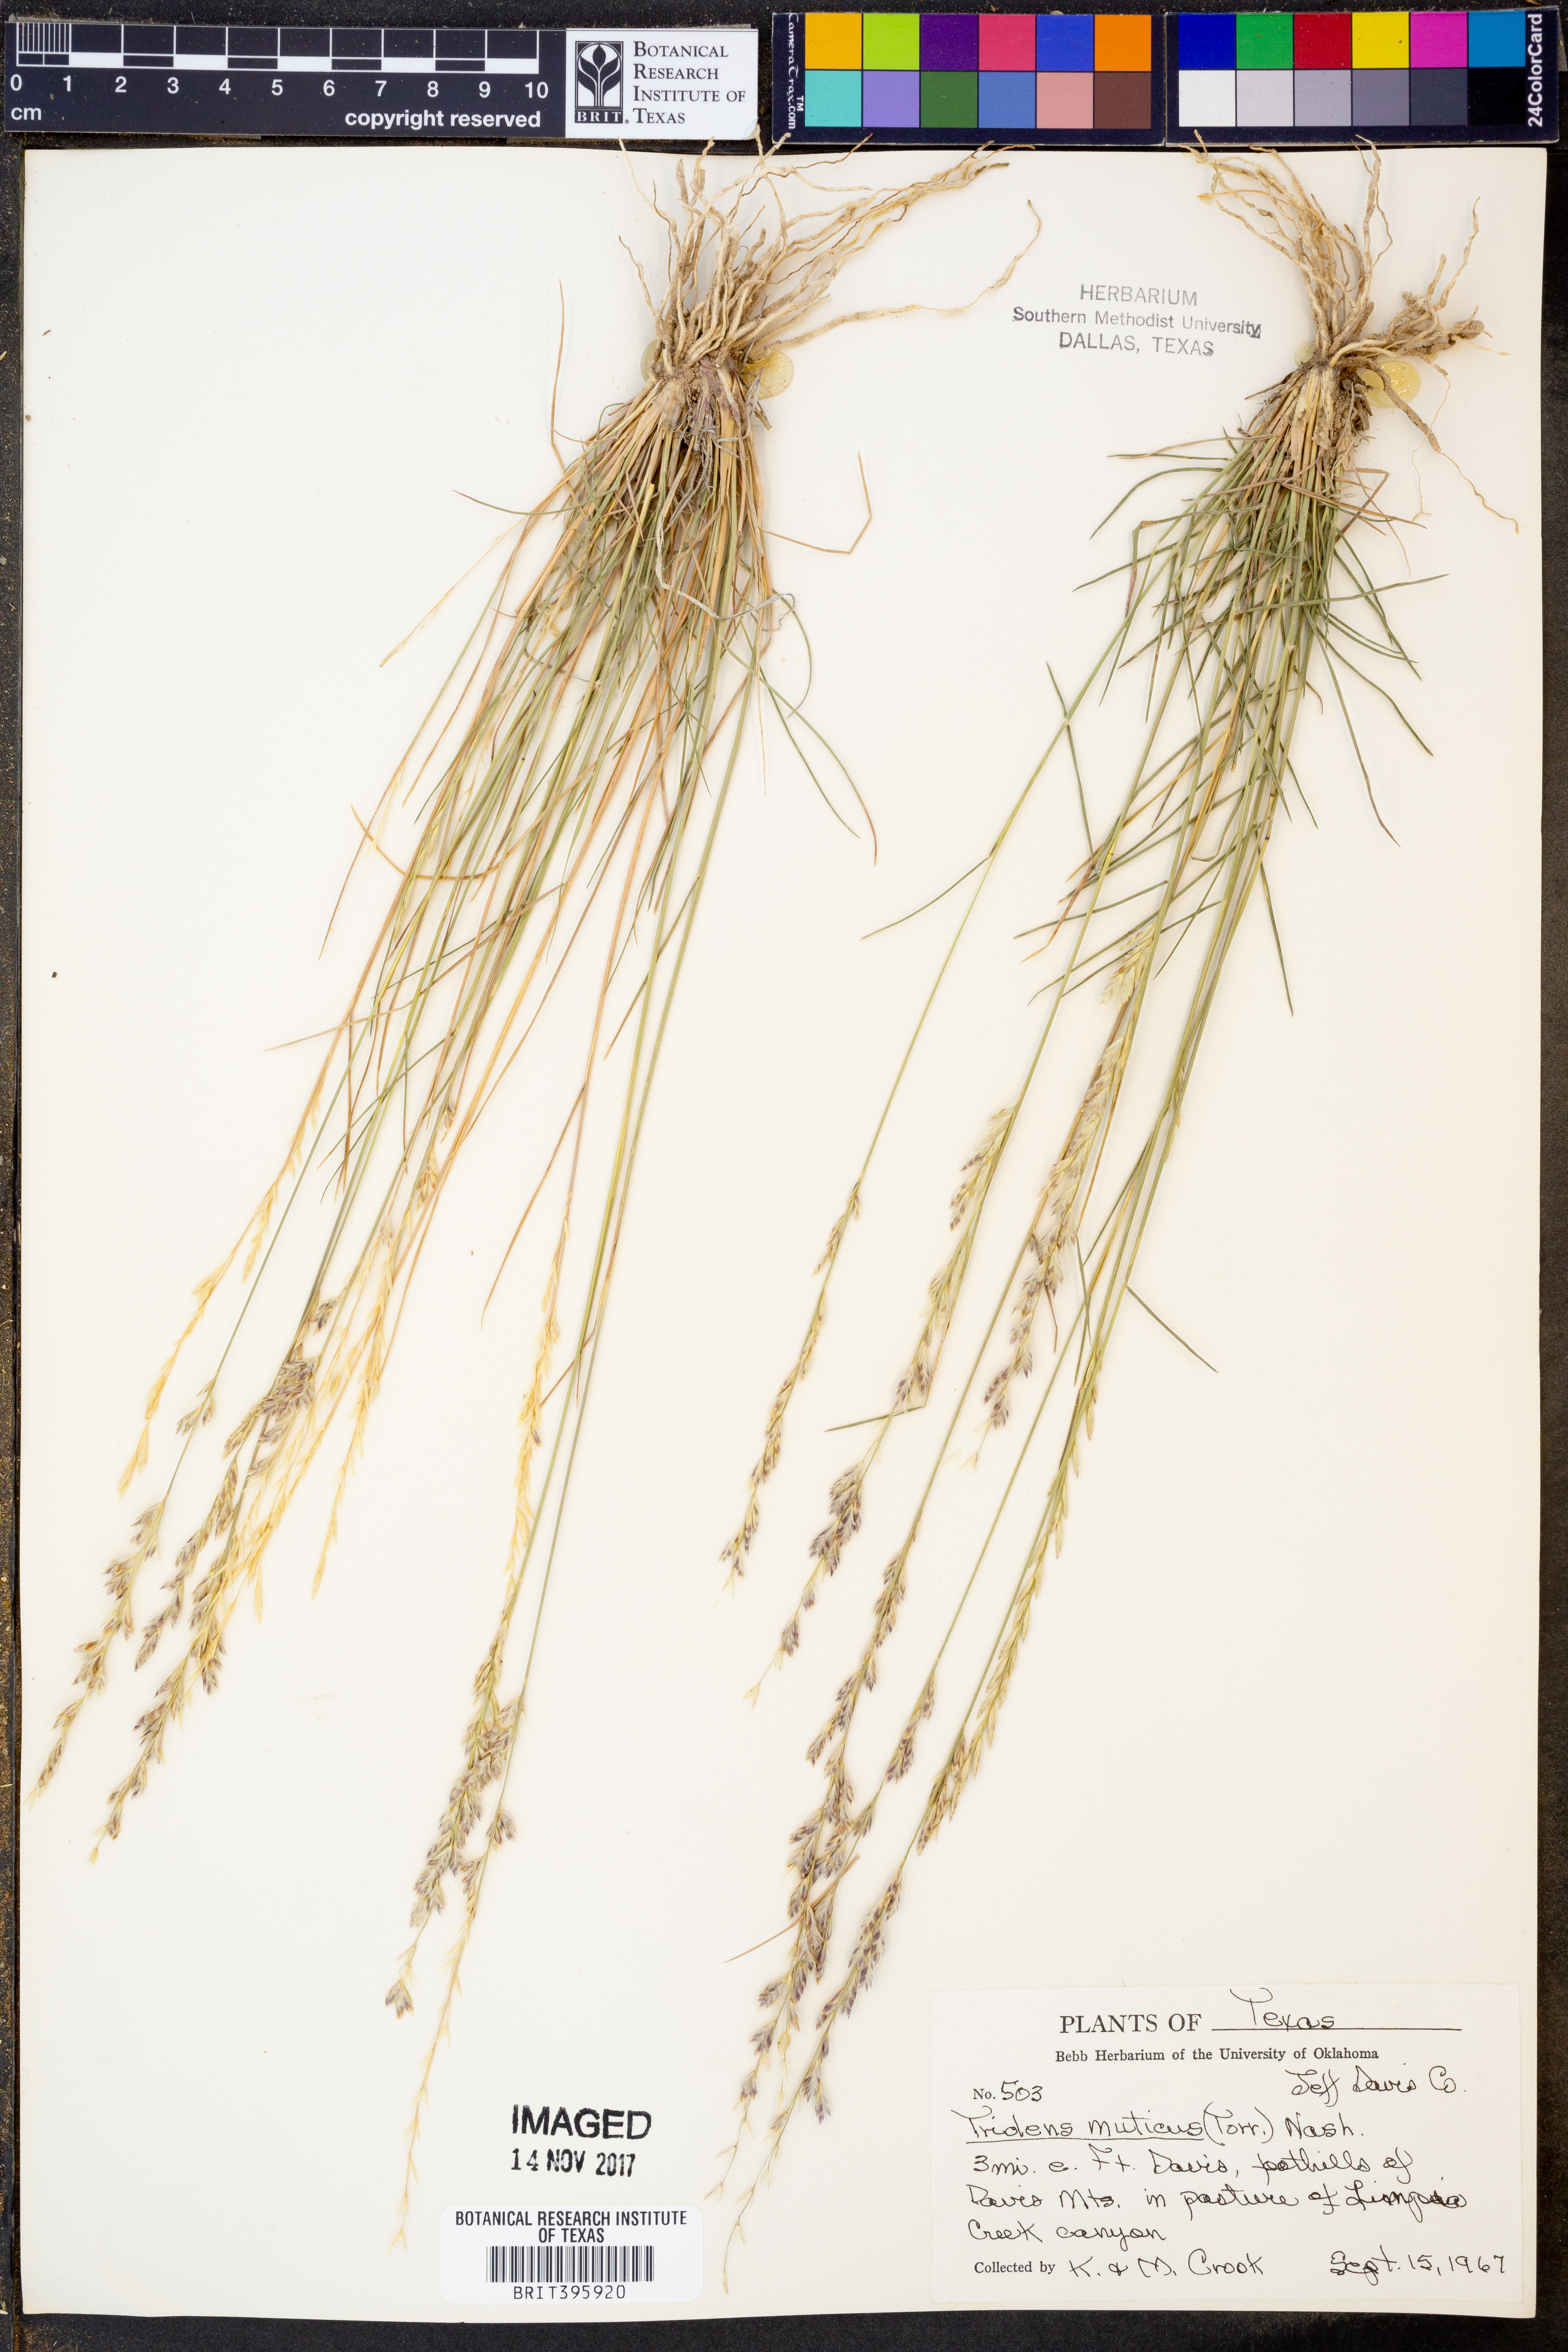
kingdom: Plantae
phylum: Tracheophyta
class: Liliopsida
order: Poales
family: Poaceae
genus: Tridentopsis
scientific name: Tridentopsis mutica
